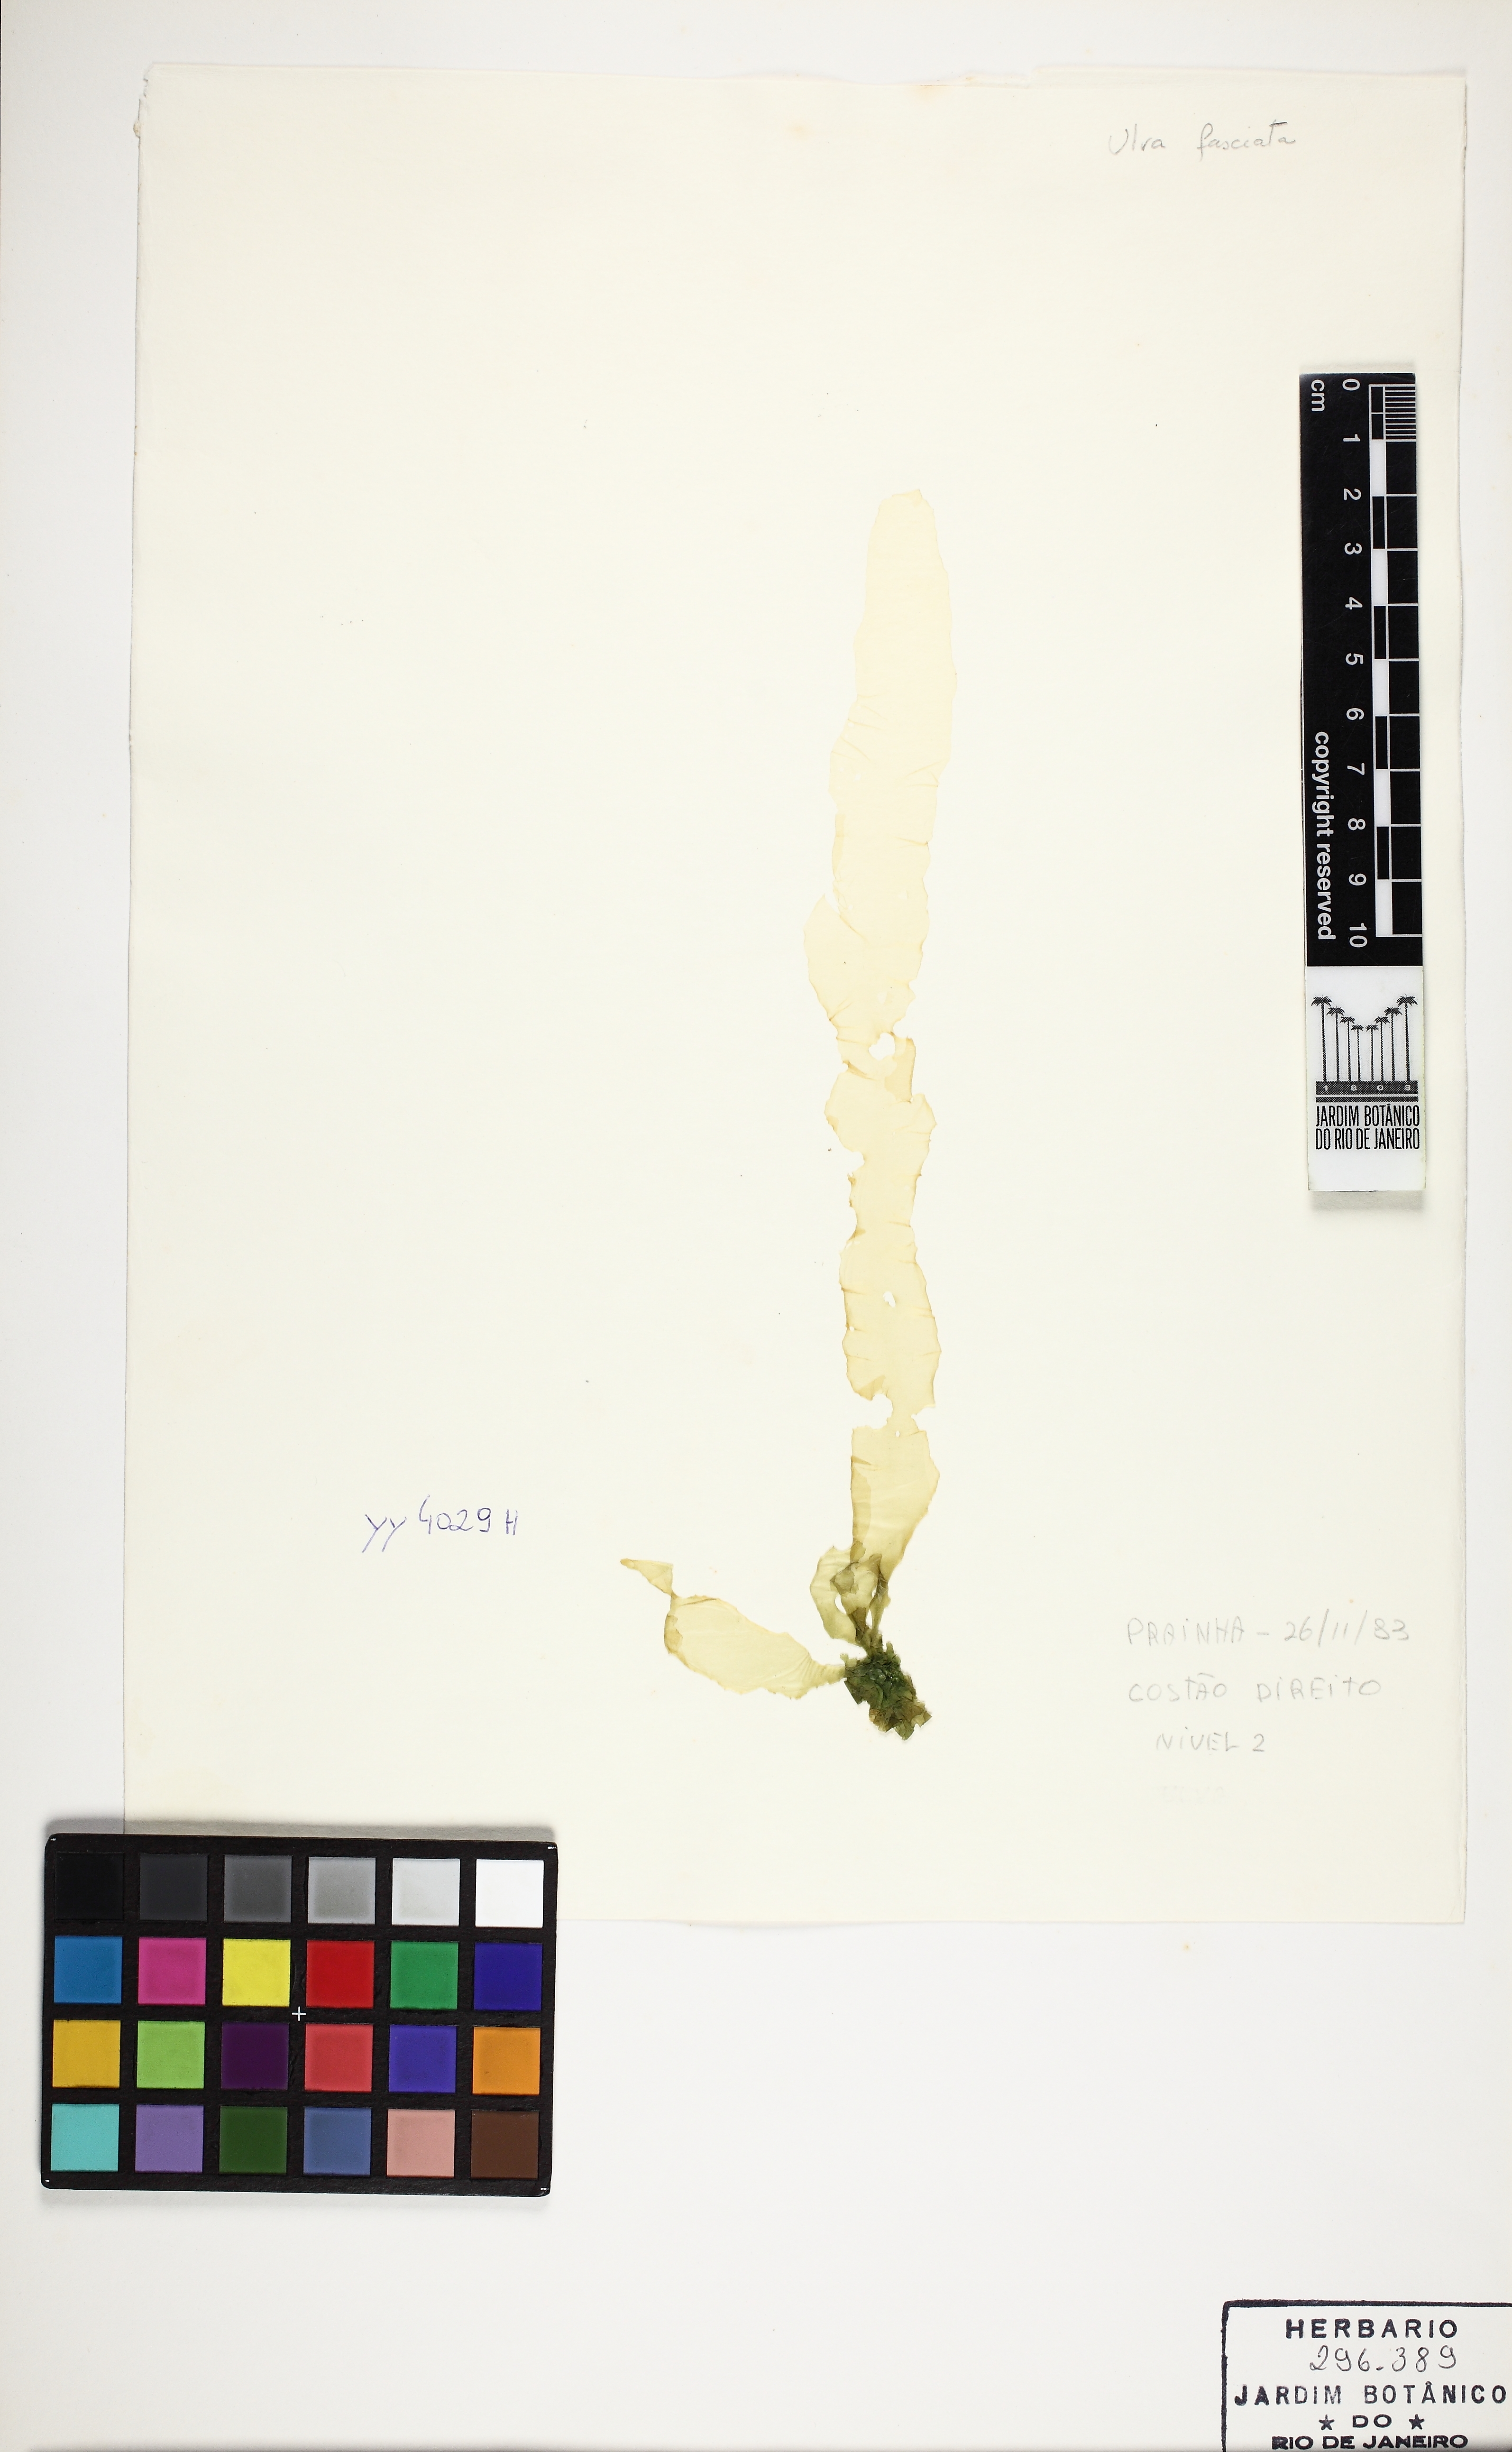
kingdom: Plantae
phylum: Chlorophyta
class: Ulvophyceae
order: Ulvales
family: Ulvaceae
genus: Ulva
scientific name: Ulva lactuca
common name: Sea lettuce
